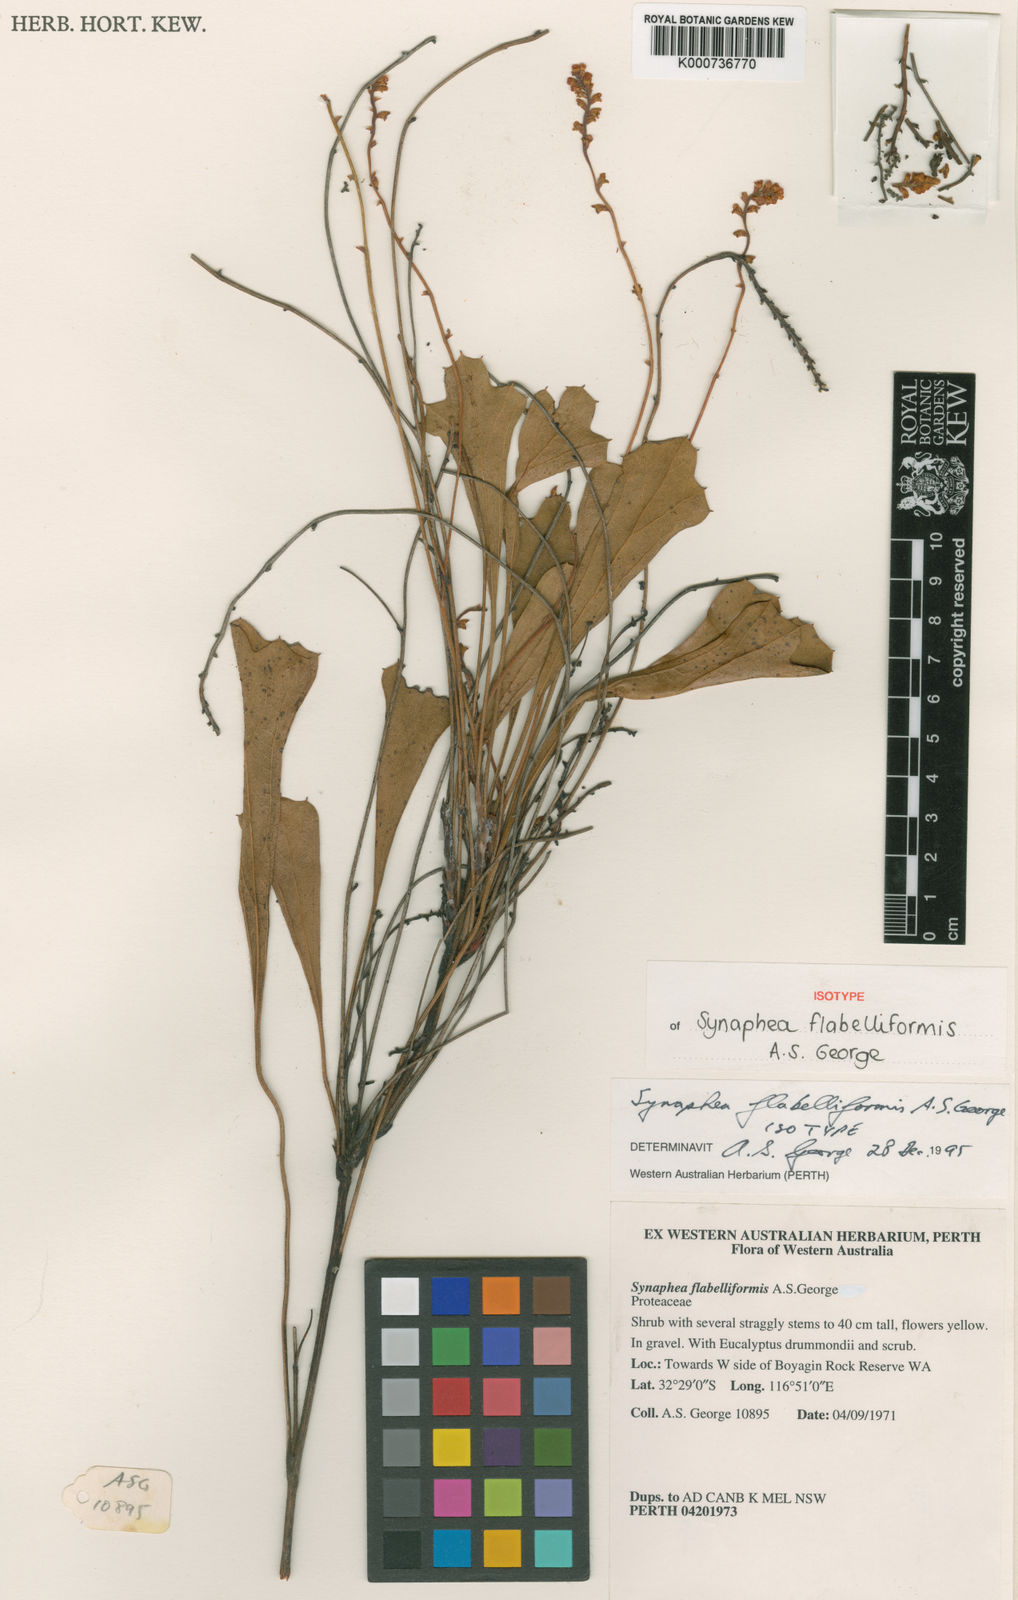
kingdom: Plantae
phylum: Tracheophyta
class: Magnoliopsida
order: Proteales
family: Proteaceae
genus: Synaphea
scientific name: Synaphea flabelliformis
